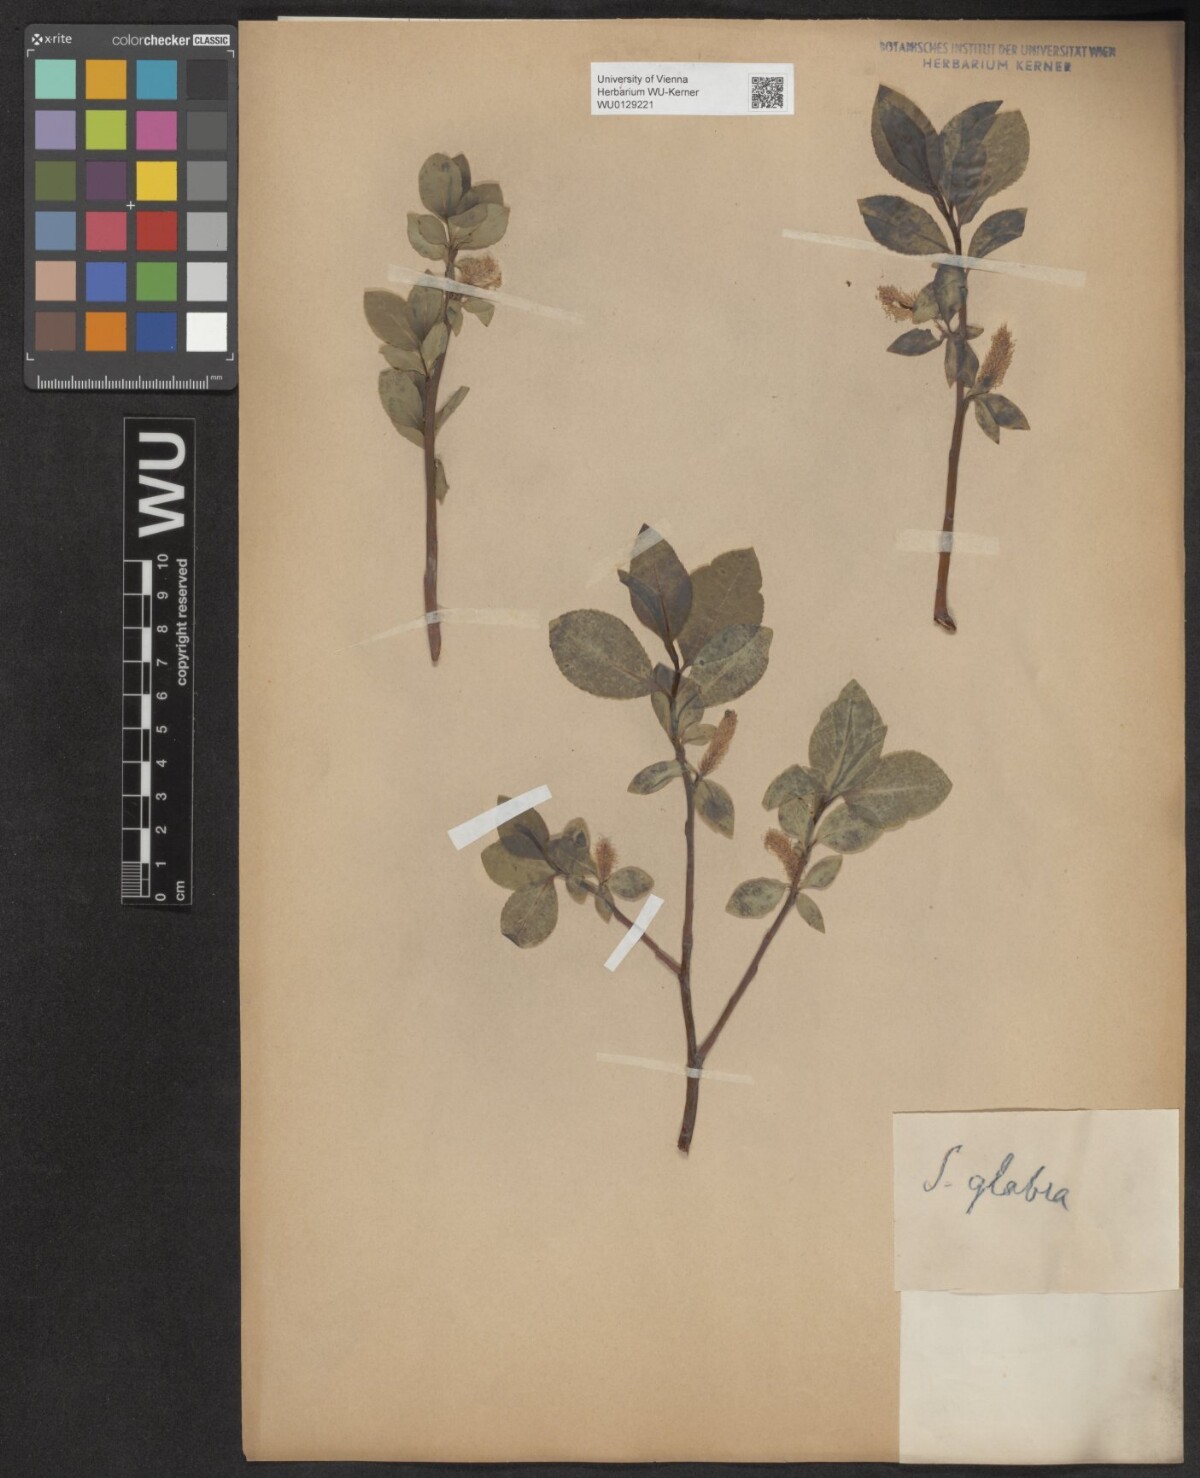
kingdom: Plantae
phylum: Tracheophyta
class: Magnoliopsida
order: Malpighiales
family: Salicaceae
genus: Salix
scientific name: Salix glabra
